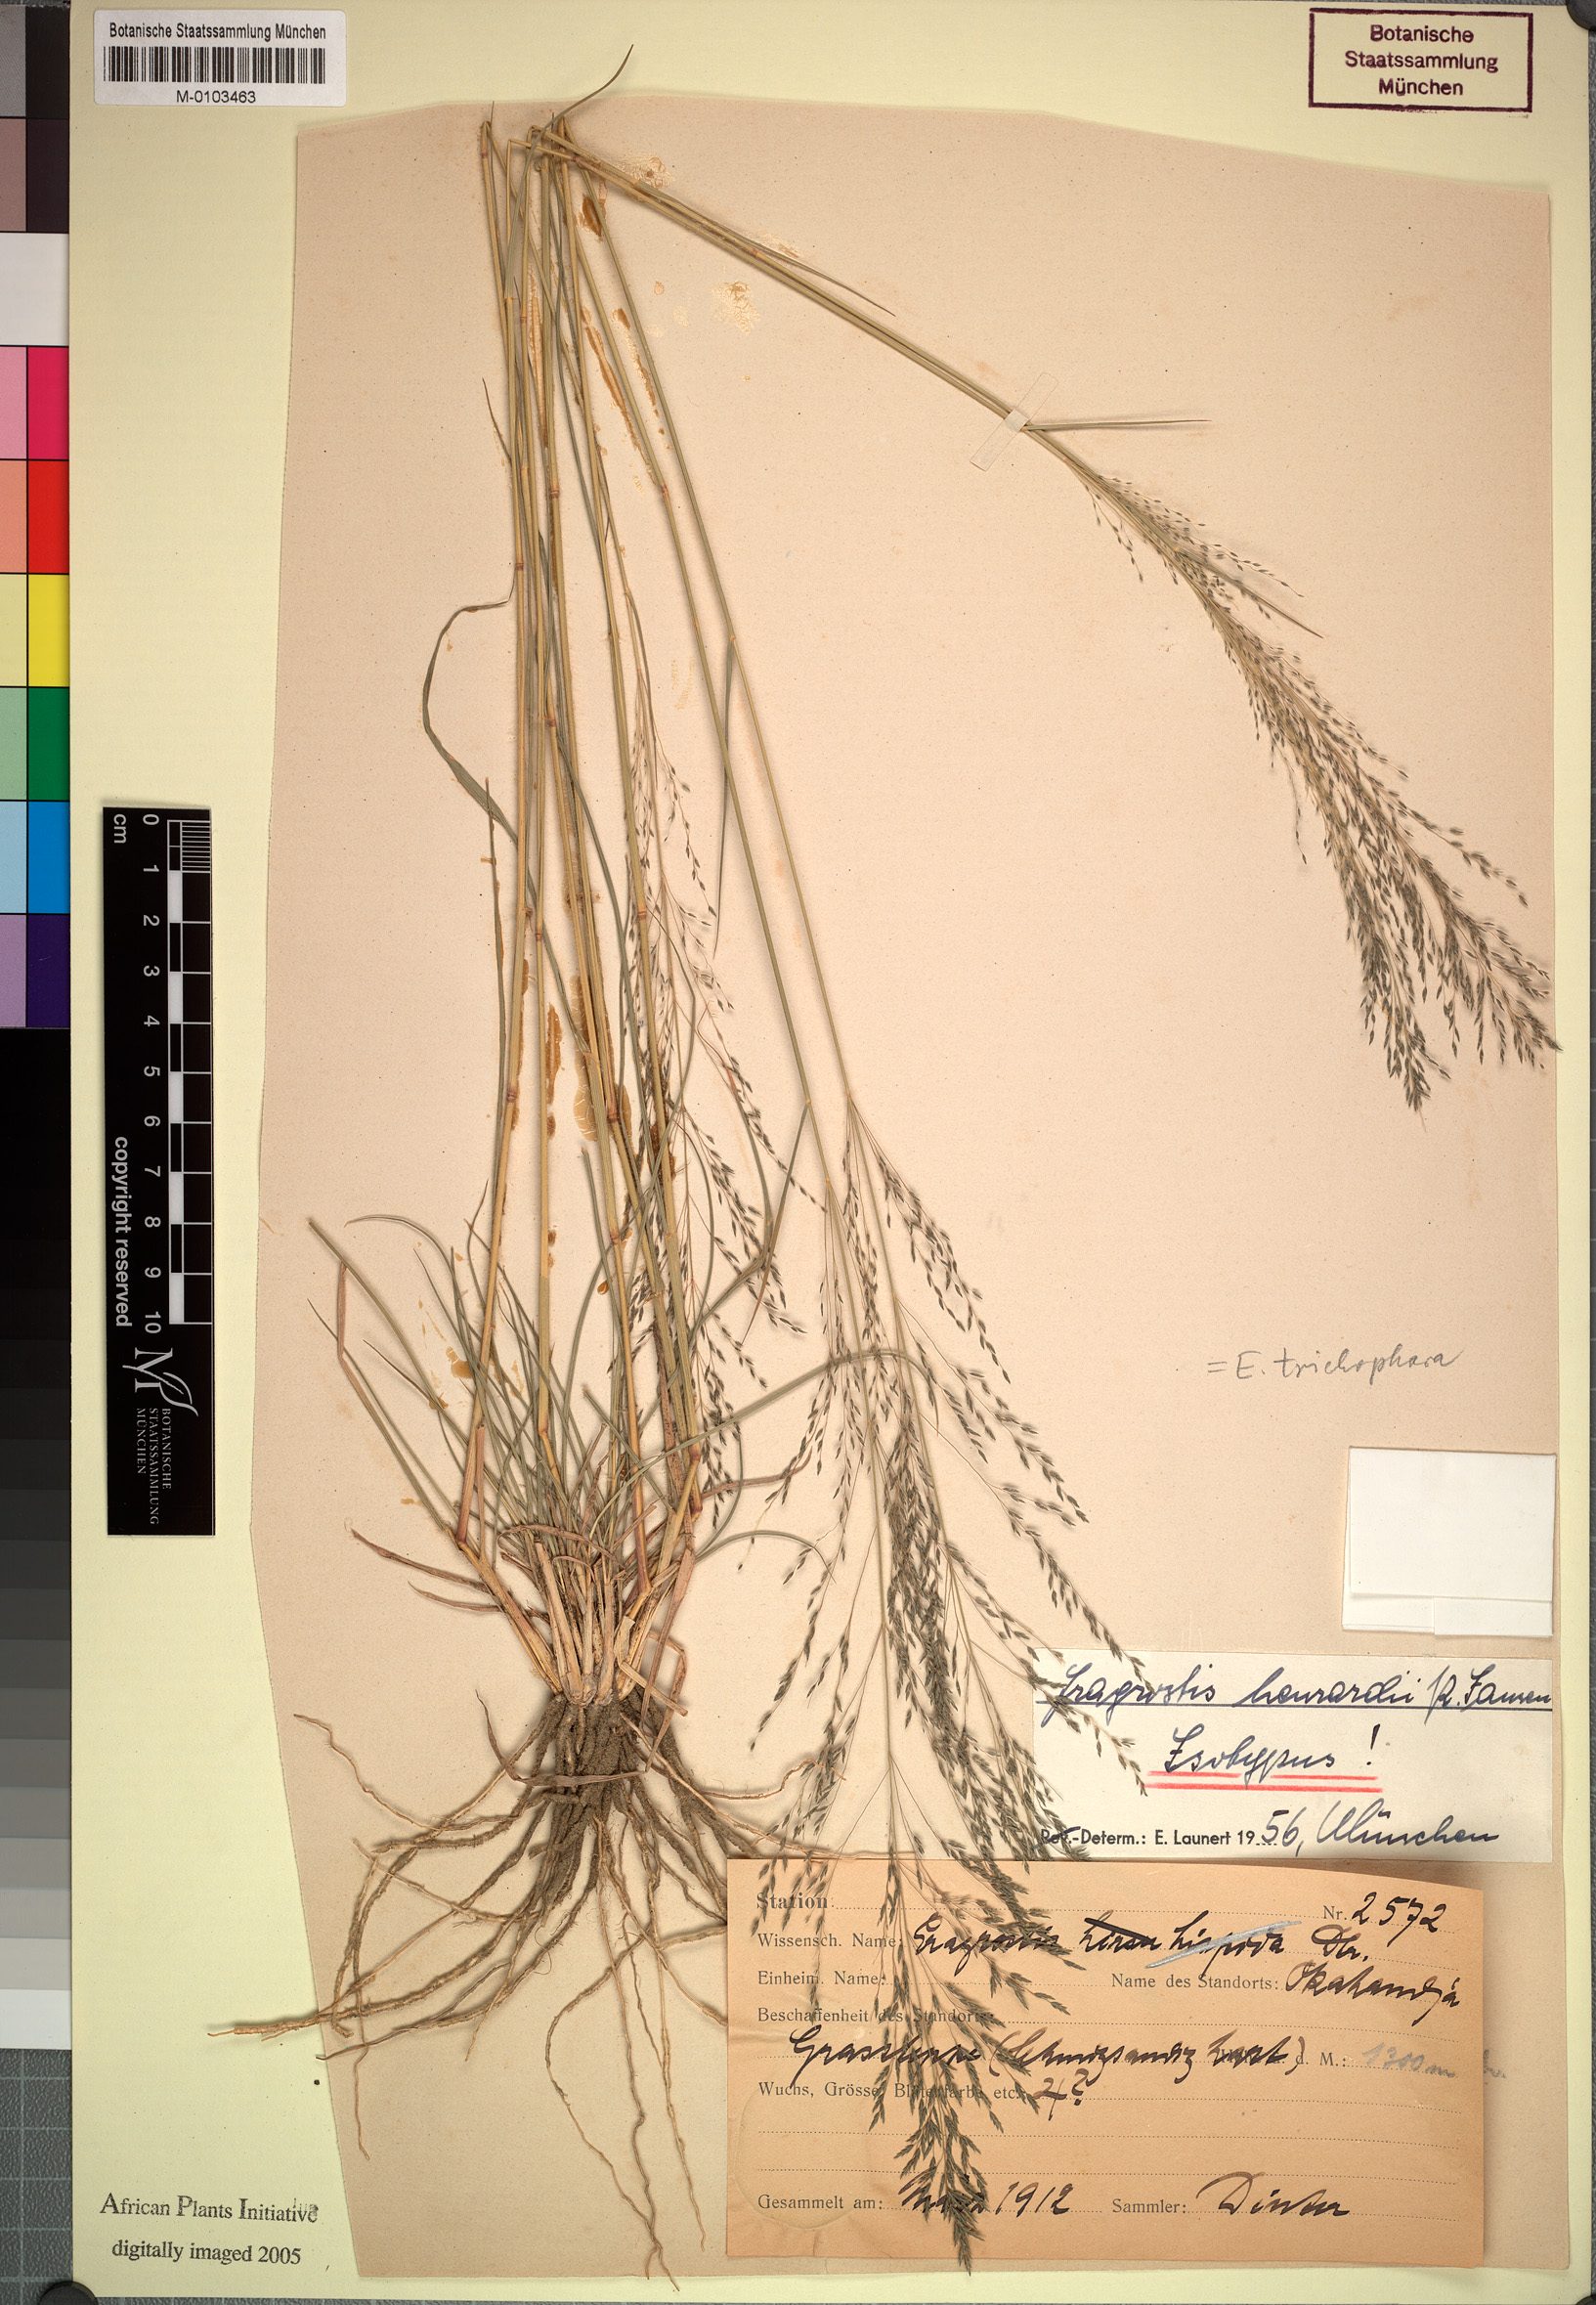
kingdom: Plantae
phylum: Tracheophyta
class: Liliopsida
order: Poales
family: Poaceae
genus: Eragrostis
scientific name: Eragrostis cylindriflora
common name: Cylinderflower lovegrass
